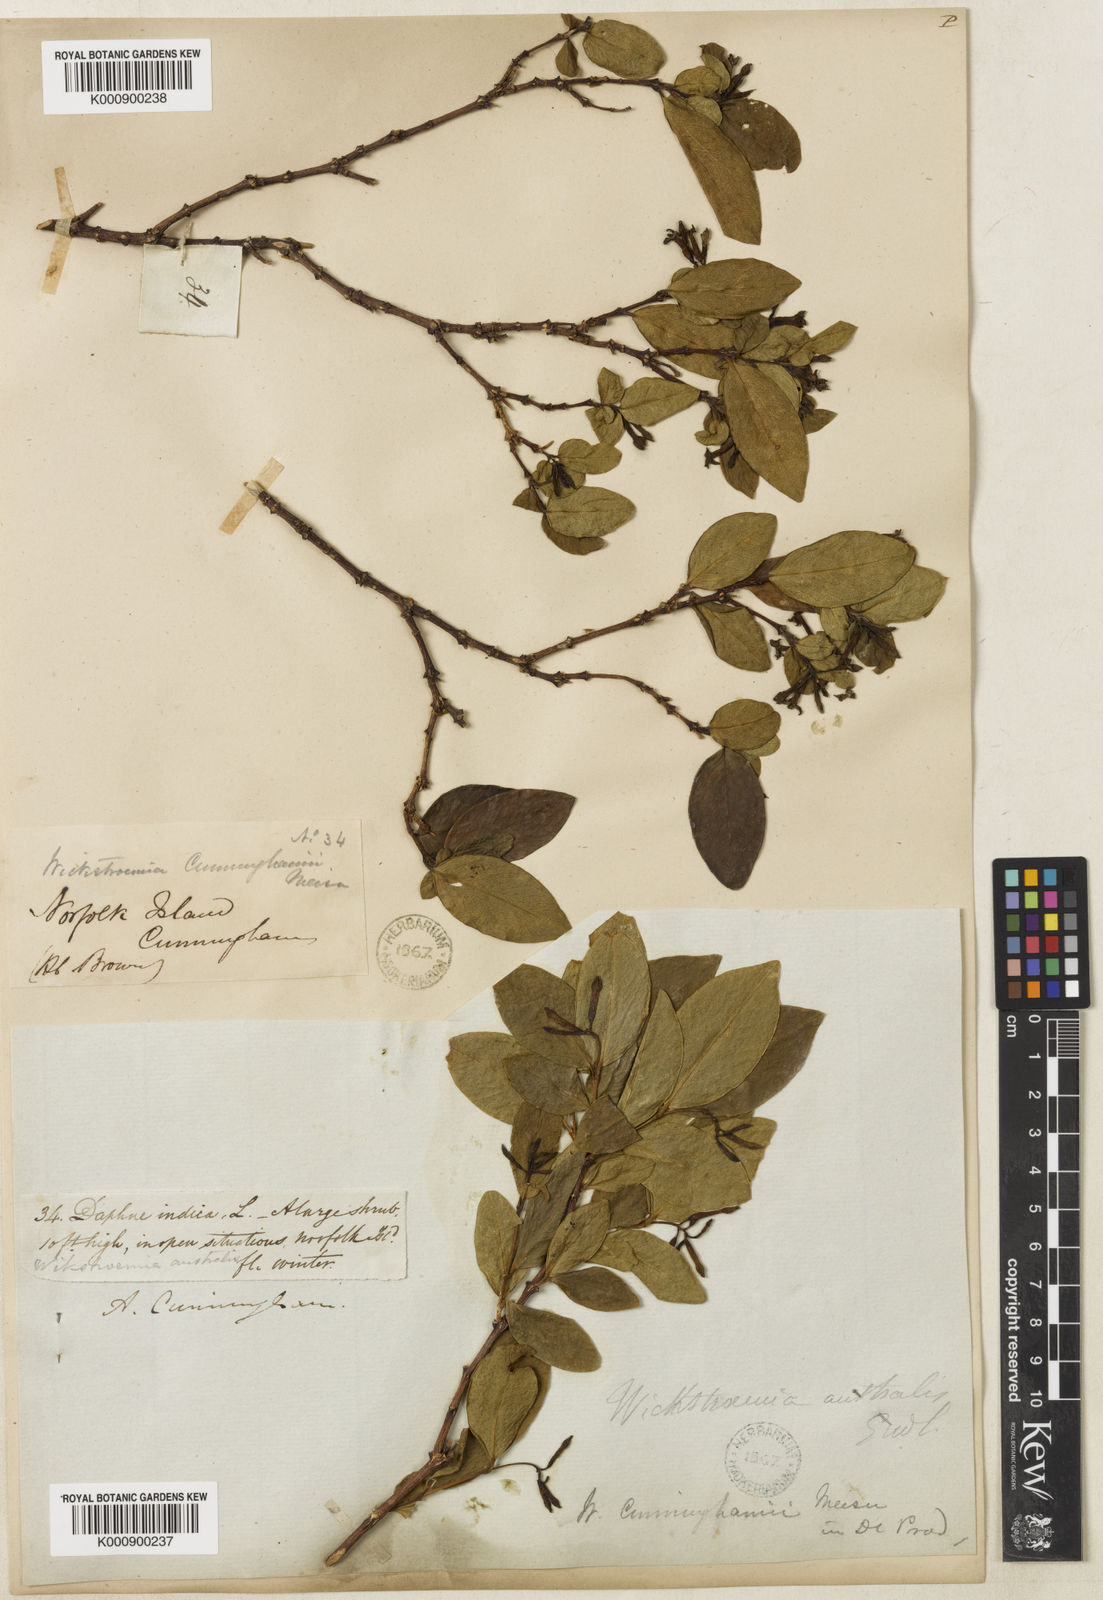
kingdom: Plantae
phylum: Tracheophyta
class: Magnoliopsida
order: Malvales
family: Thymelaeaceae
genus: Wikstroemia
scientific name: Wikstroemia australis
